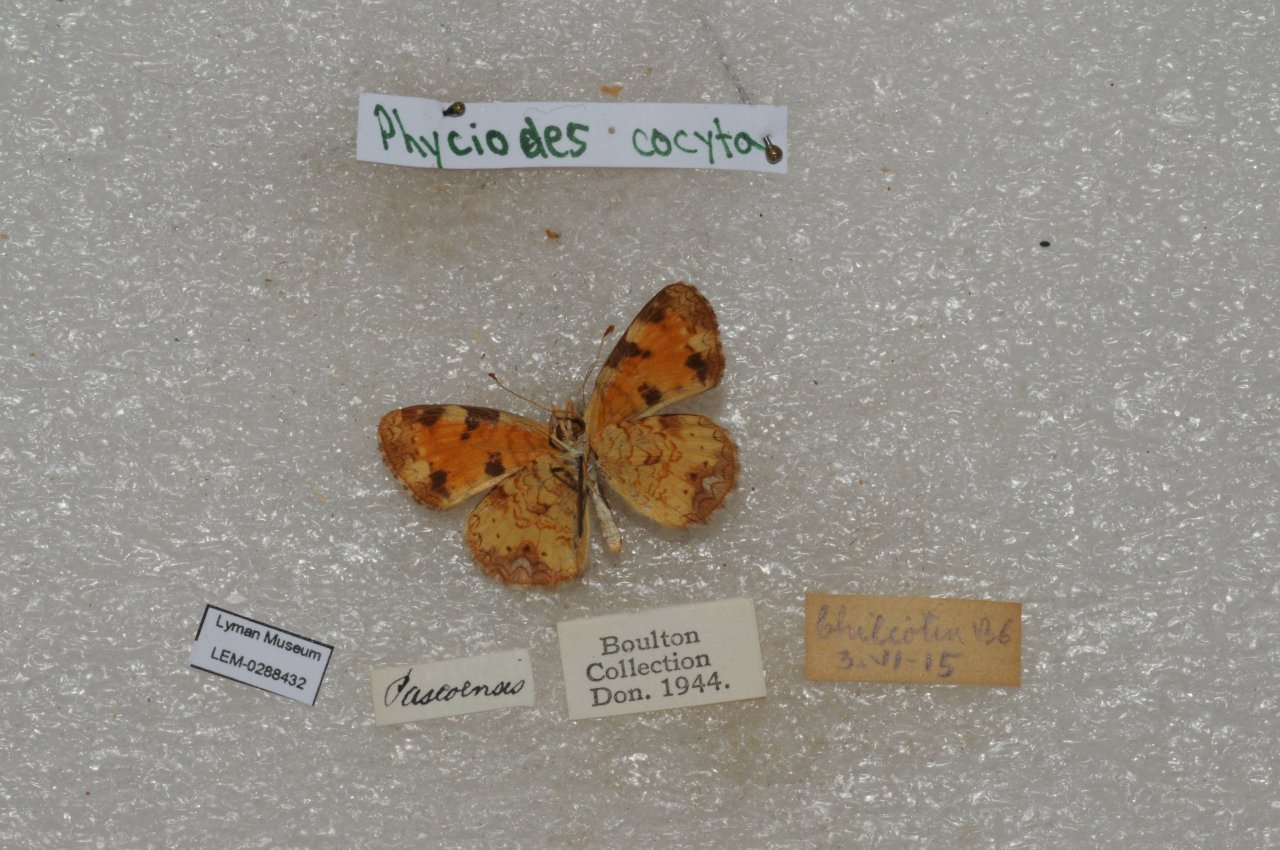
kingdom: Animalia
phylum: Arthropoda
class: Insecta
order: Lepidoptera
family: Nymphalidae
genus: Phyciodes
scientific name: Phyciodes tharos
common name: Northern Crescent
